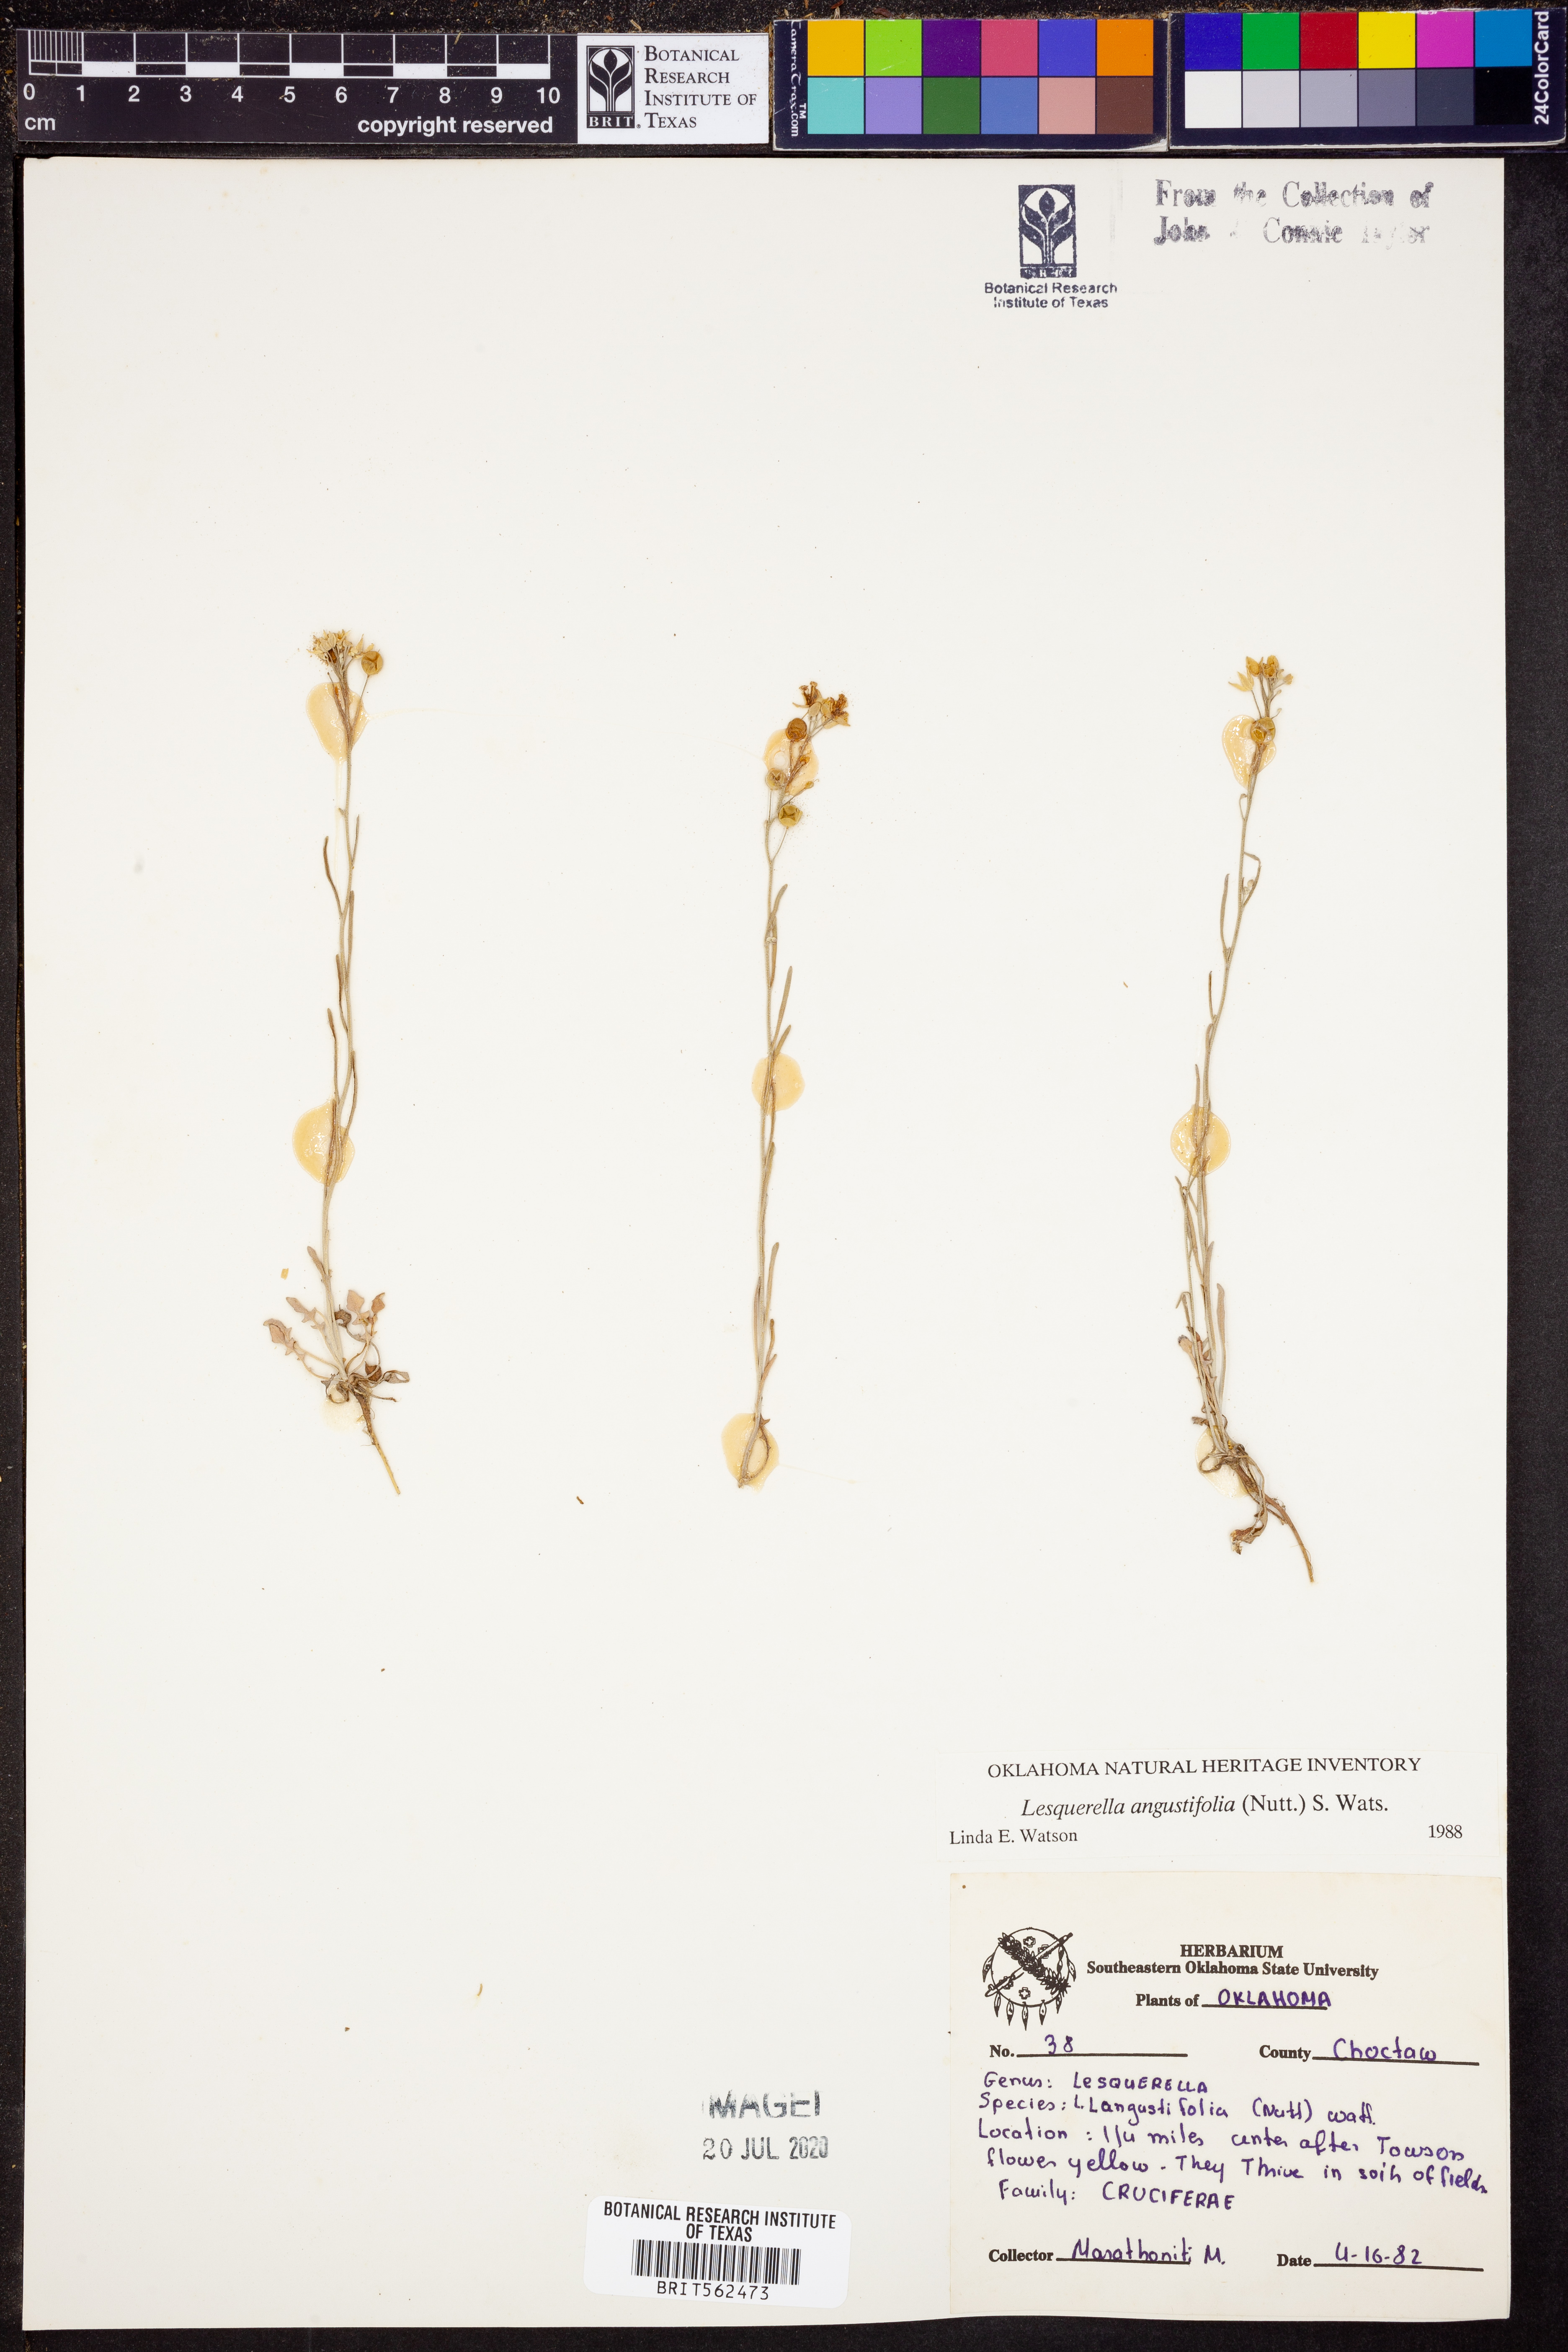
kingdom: Plantae
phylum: Tracheophyta
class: Magnoliopsida
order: Brassicales
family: Brassicaceae
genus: Physaria
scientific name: Physaria angustifolia
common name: Threadleaf bladderpod
